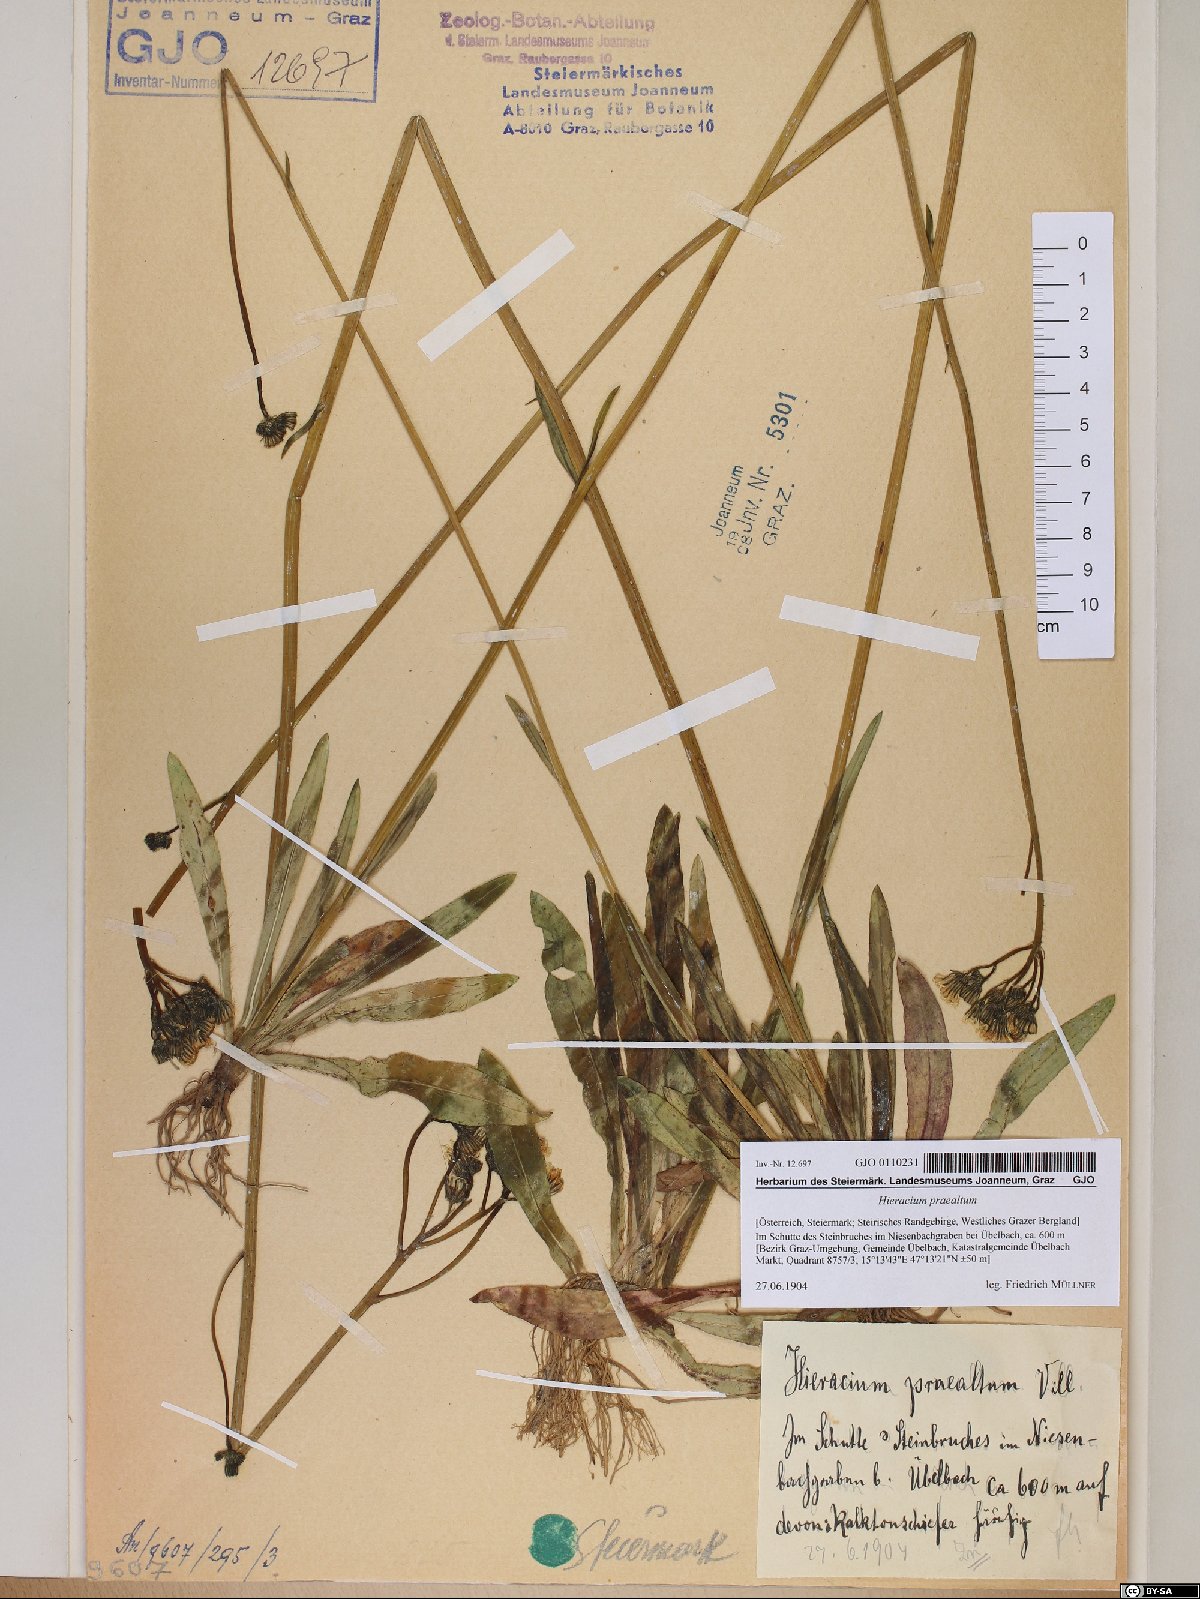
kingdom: Plantae
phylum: Tracheophyta
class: Magnoliopsida
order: Asterales
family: Asteraceae
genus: Pilosella
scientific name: Pilosella piloselloides
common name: Glaucous king-devil
